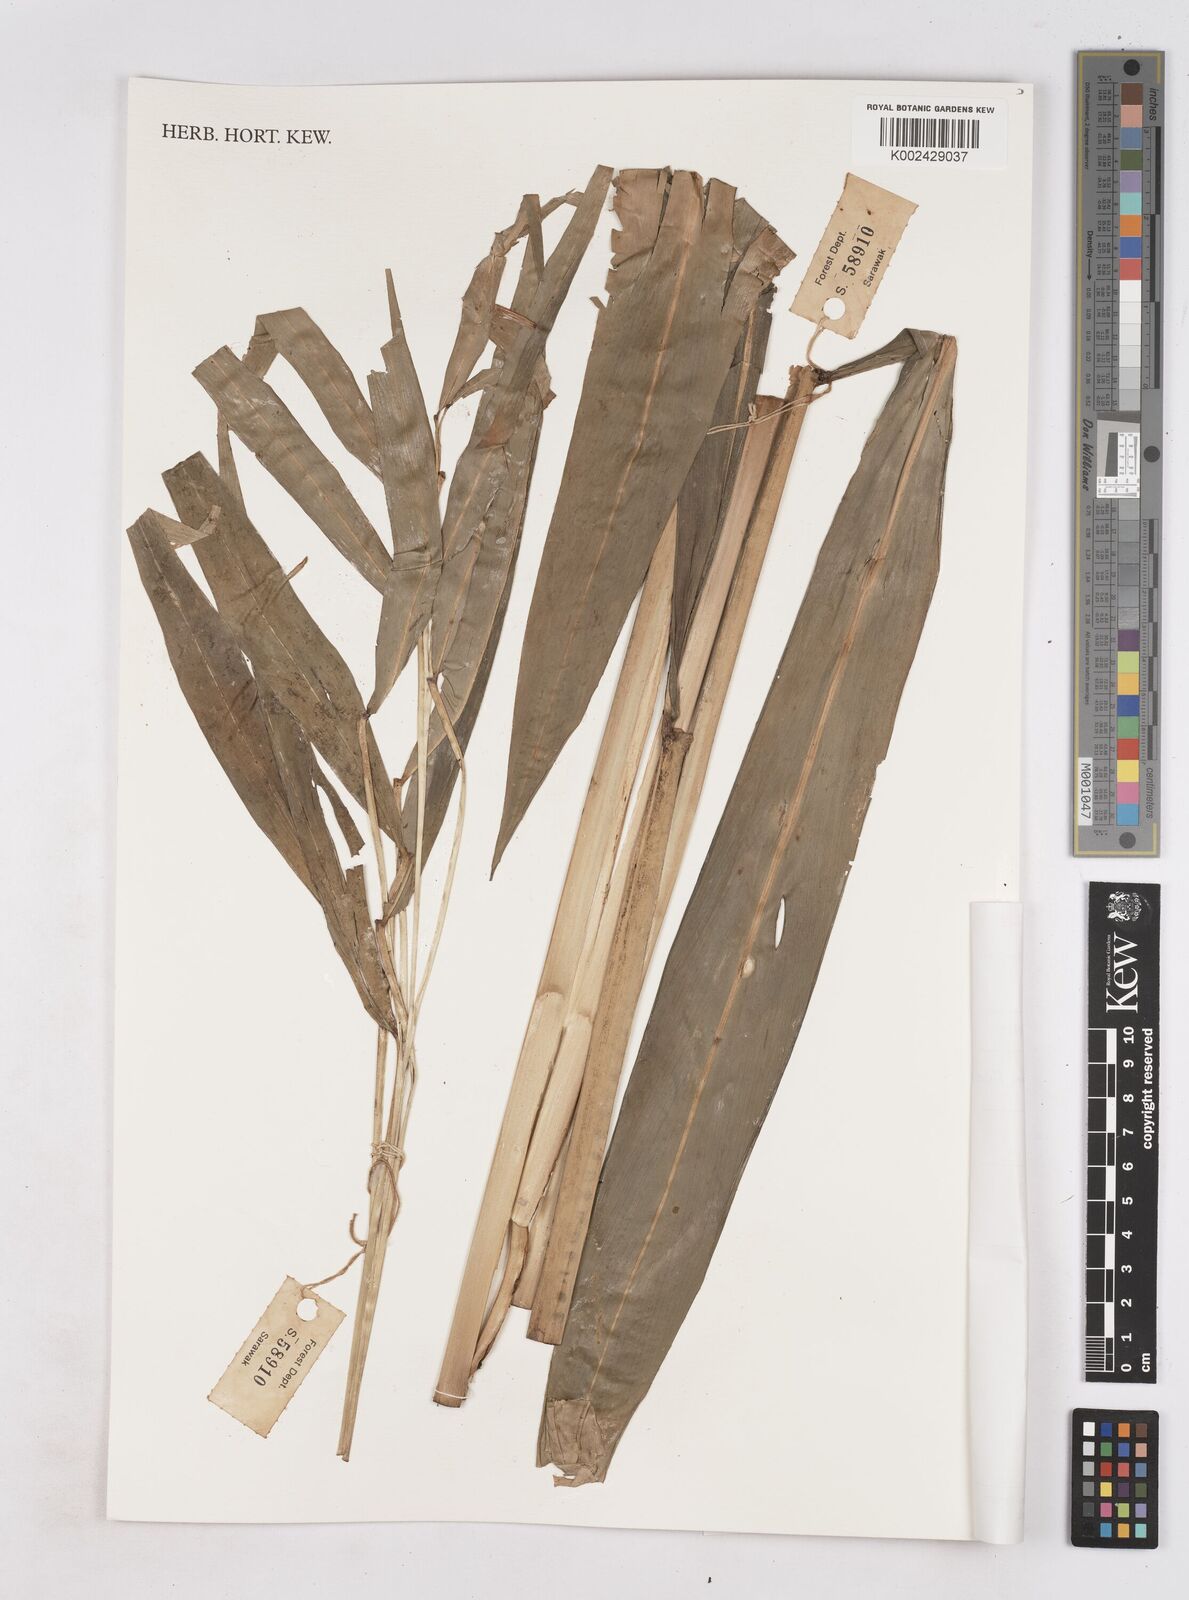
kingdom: Plantae
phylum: Tracheophyta
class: Liliopsida
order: Zingiberales
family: Zingiberaceae
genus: Zingiber
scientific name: Zingiber longipedunculatum
